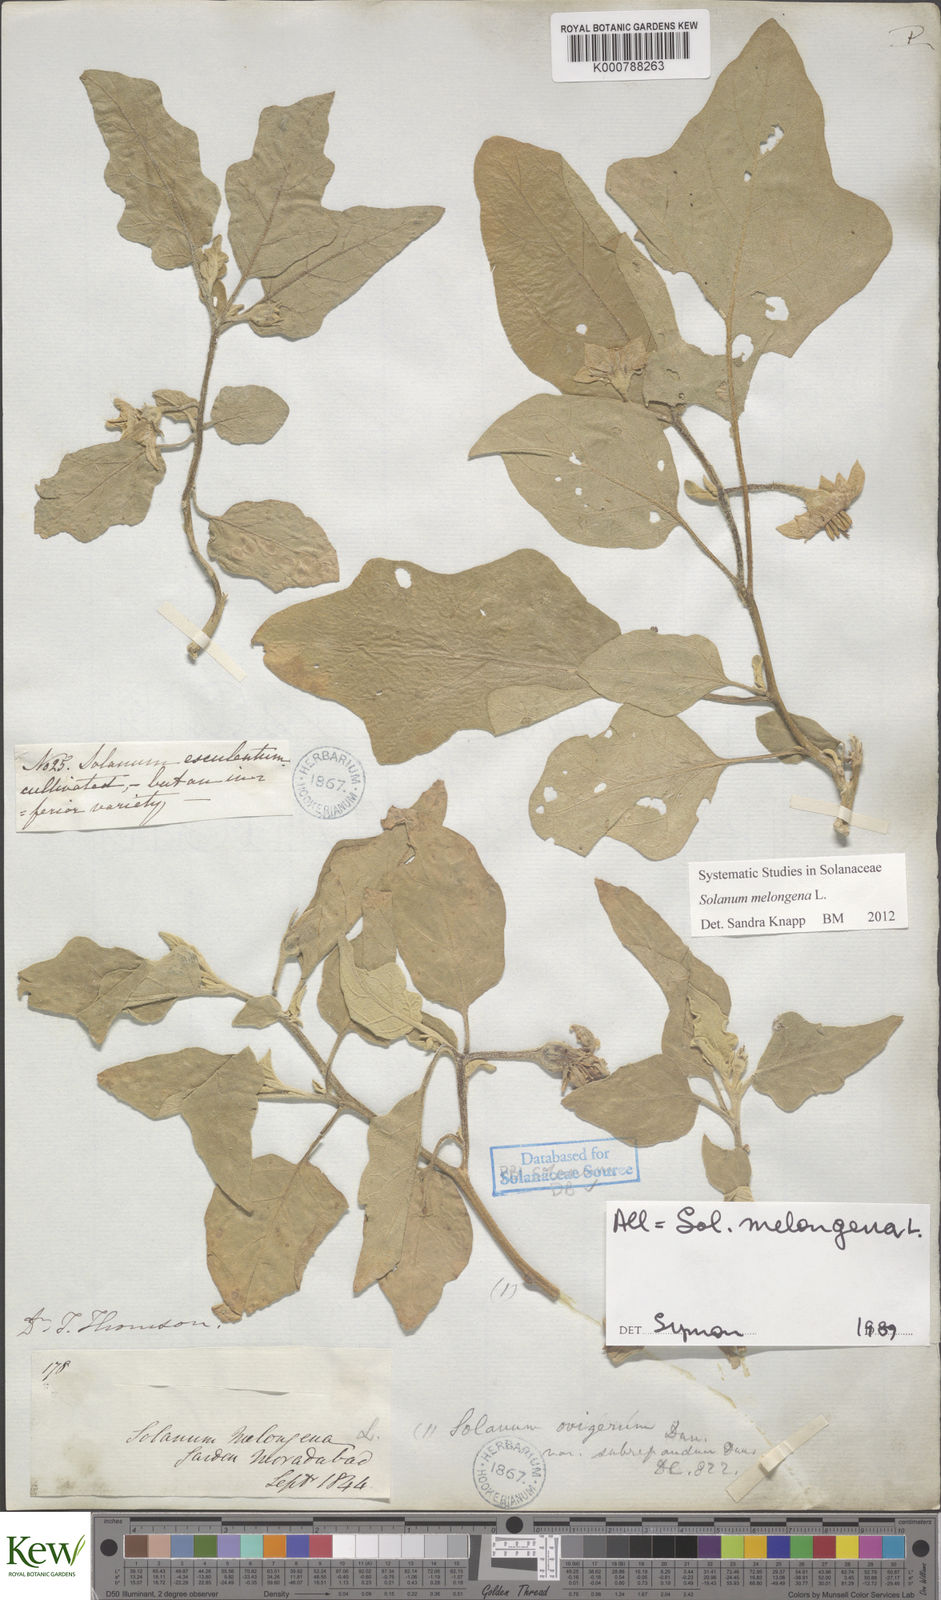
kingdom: Plantae
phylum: Tracheophyta
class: Magnoliopsida
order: Solanales
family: Solanaceae
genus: Solanum
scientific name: Solanum melongena
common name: Eggplant
